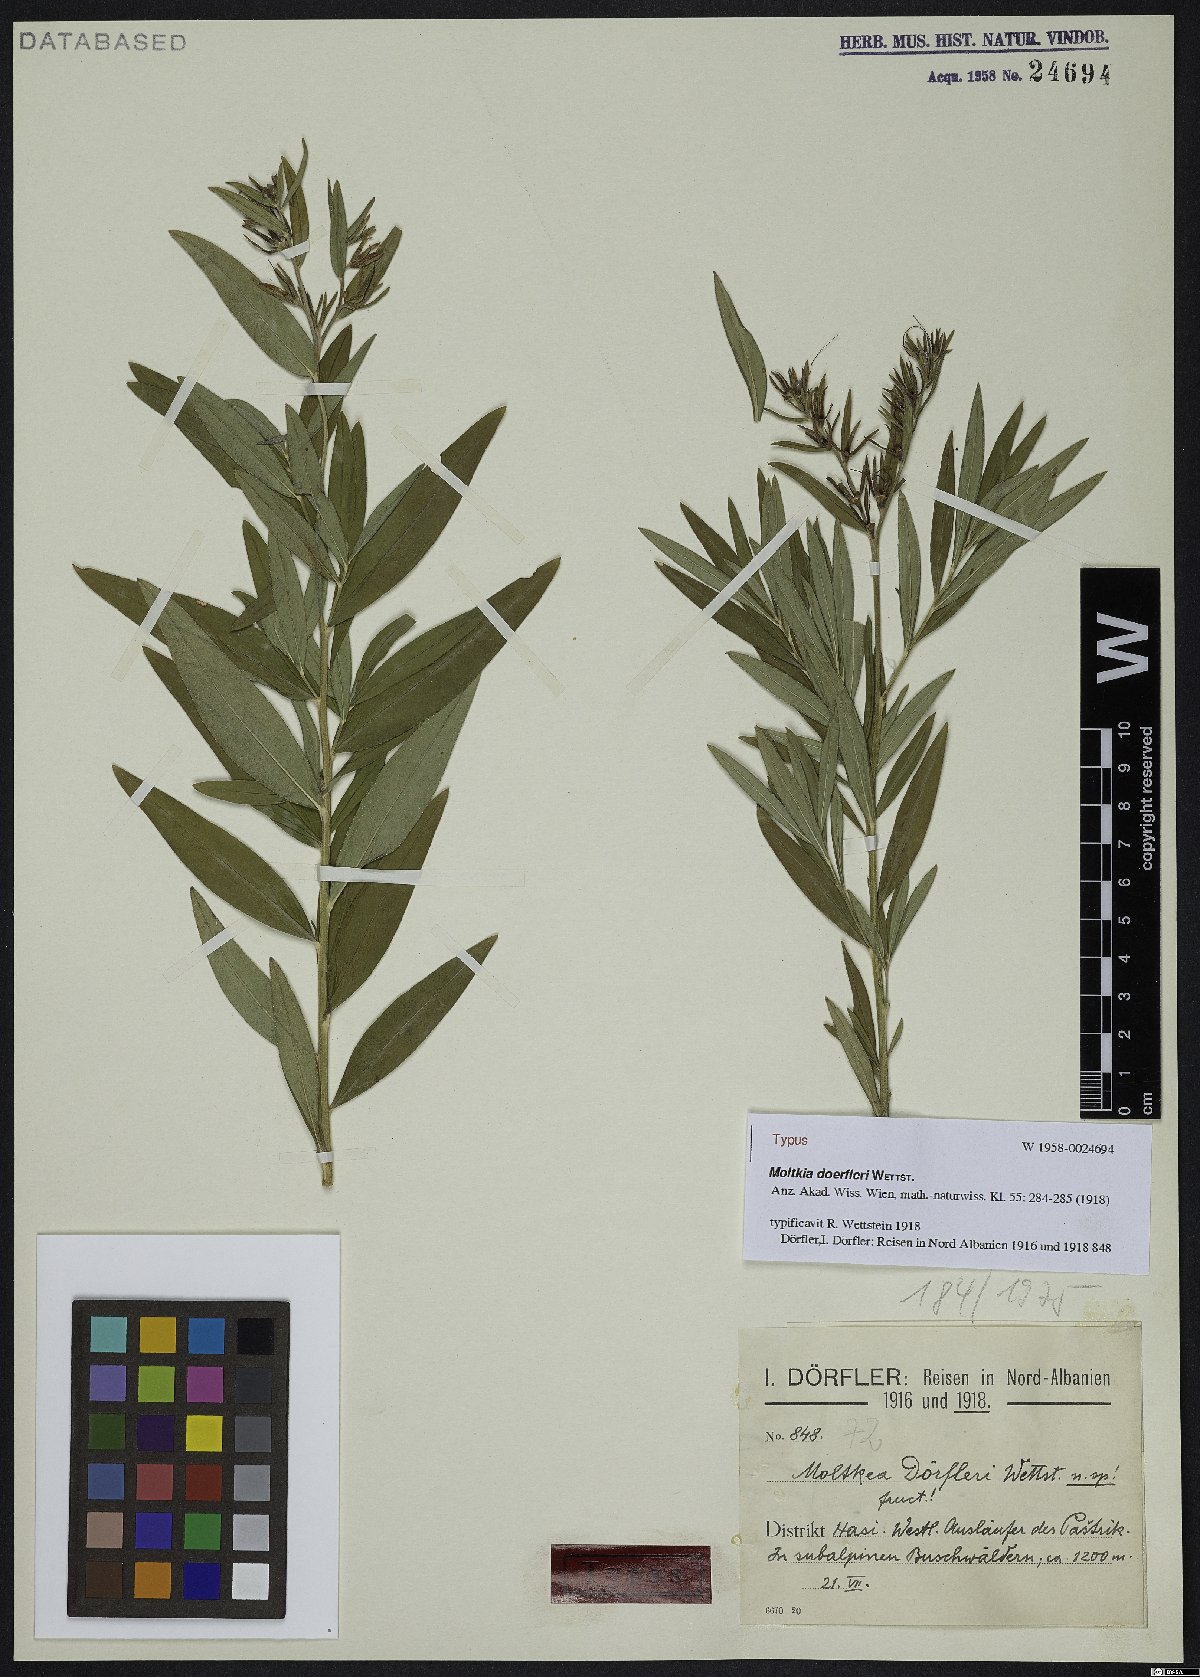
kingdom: Plantae
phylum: Tracheophyta
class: Magnoliopsida
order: Boraginales
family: Boraginaceae
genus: Paramoltkia
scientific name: Paramoltkia doerfleri
